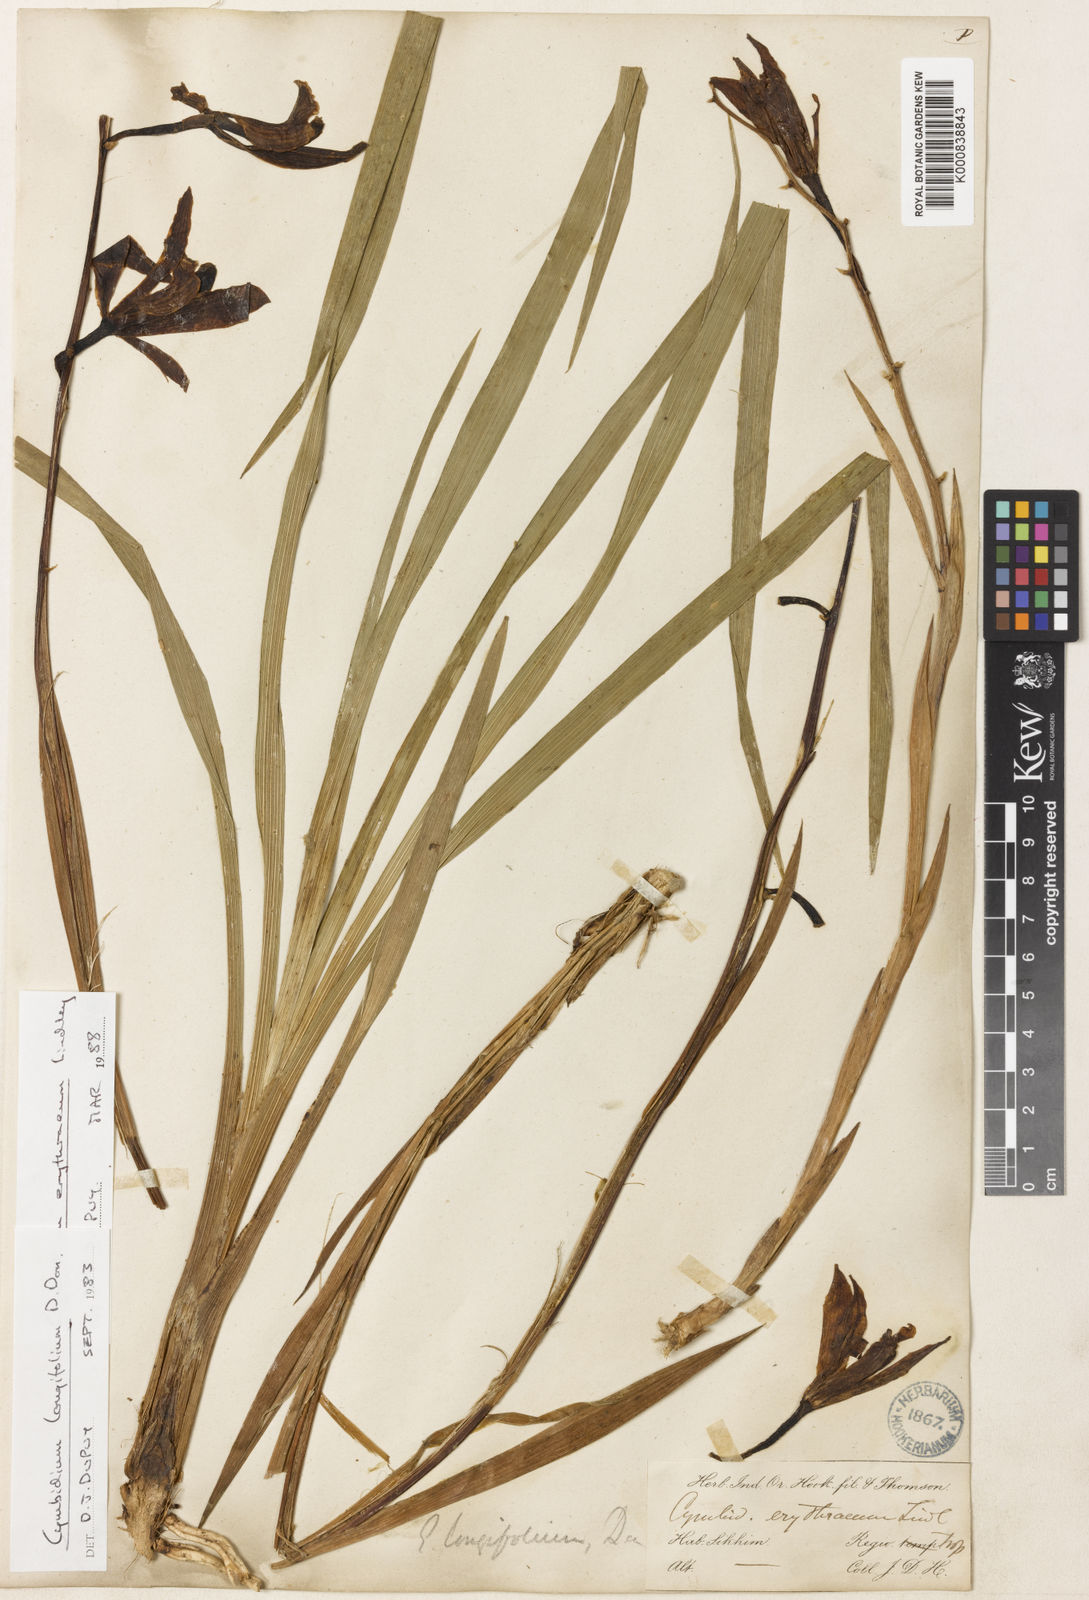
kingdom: Plantae
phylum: Tracheophyta
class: Liliopsida
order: Asparagales
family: Orchidaceae
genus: Cymbidium
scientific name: Cymbidium erythraeum
